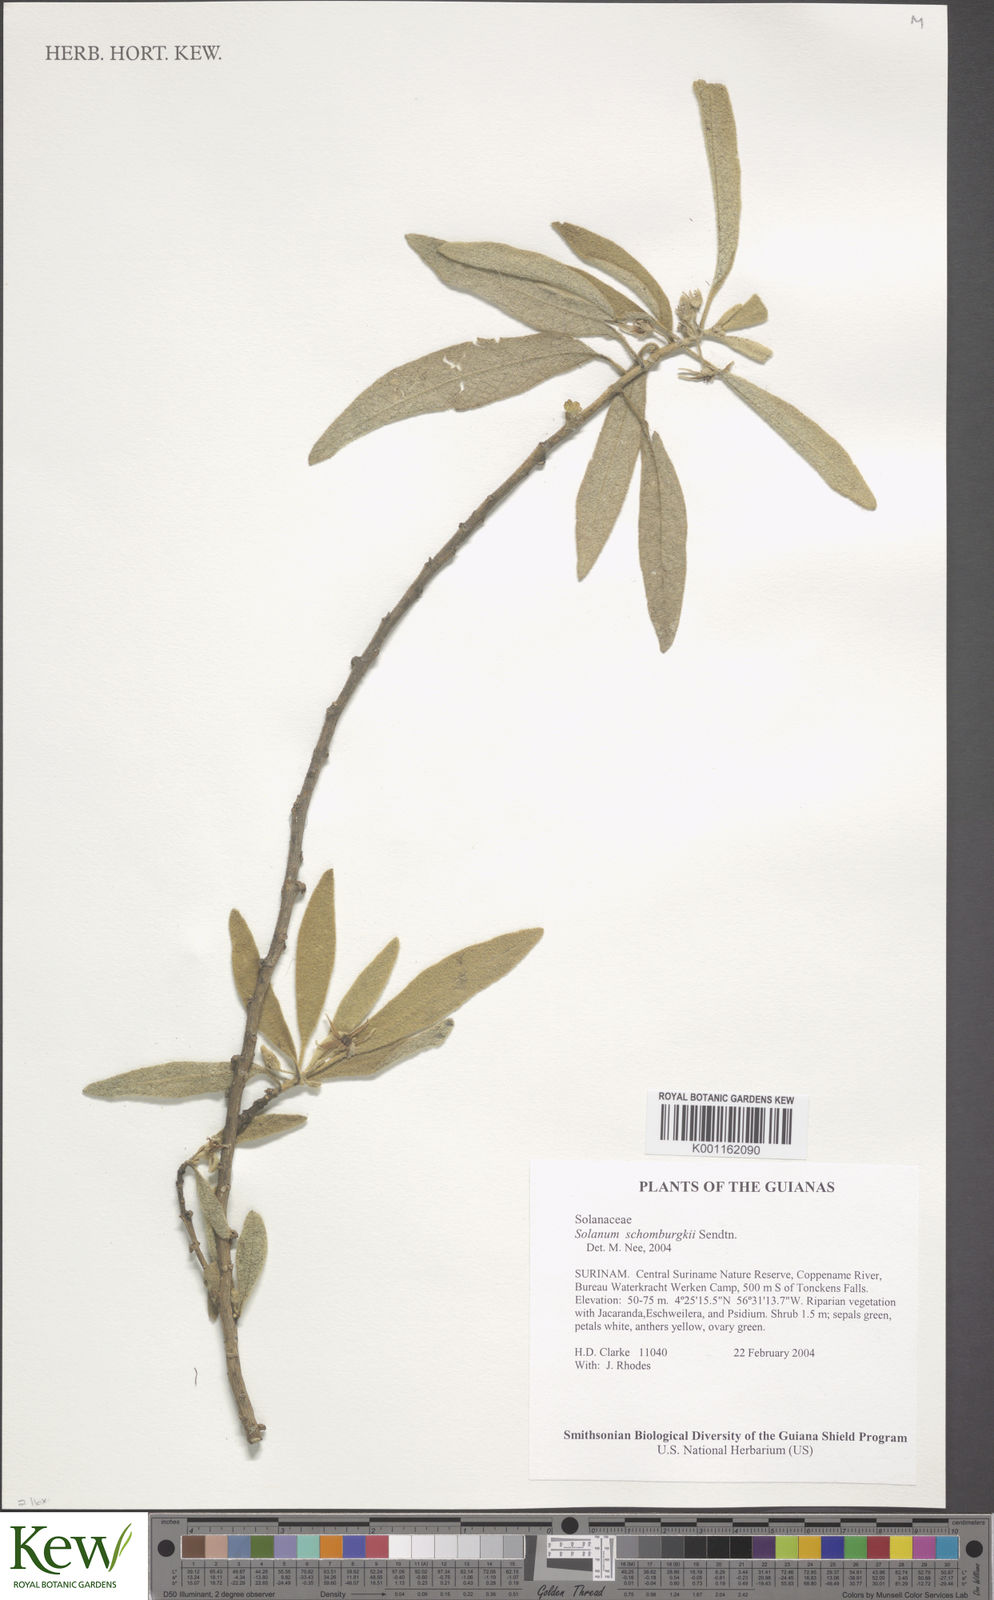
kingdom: Plantae
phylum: Tracheophyta
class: Magnoliopsida
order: Solanales
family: Solanaceae
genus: Solanum
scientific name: Solanum
